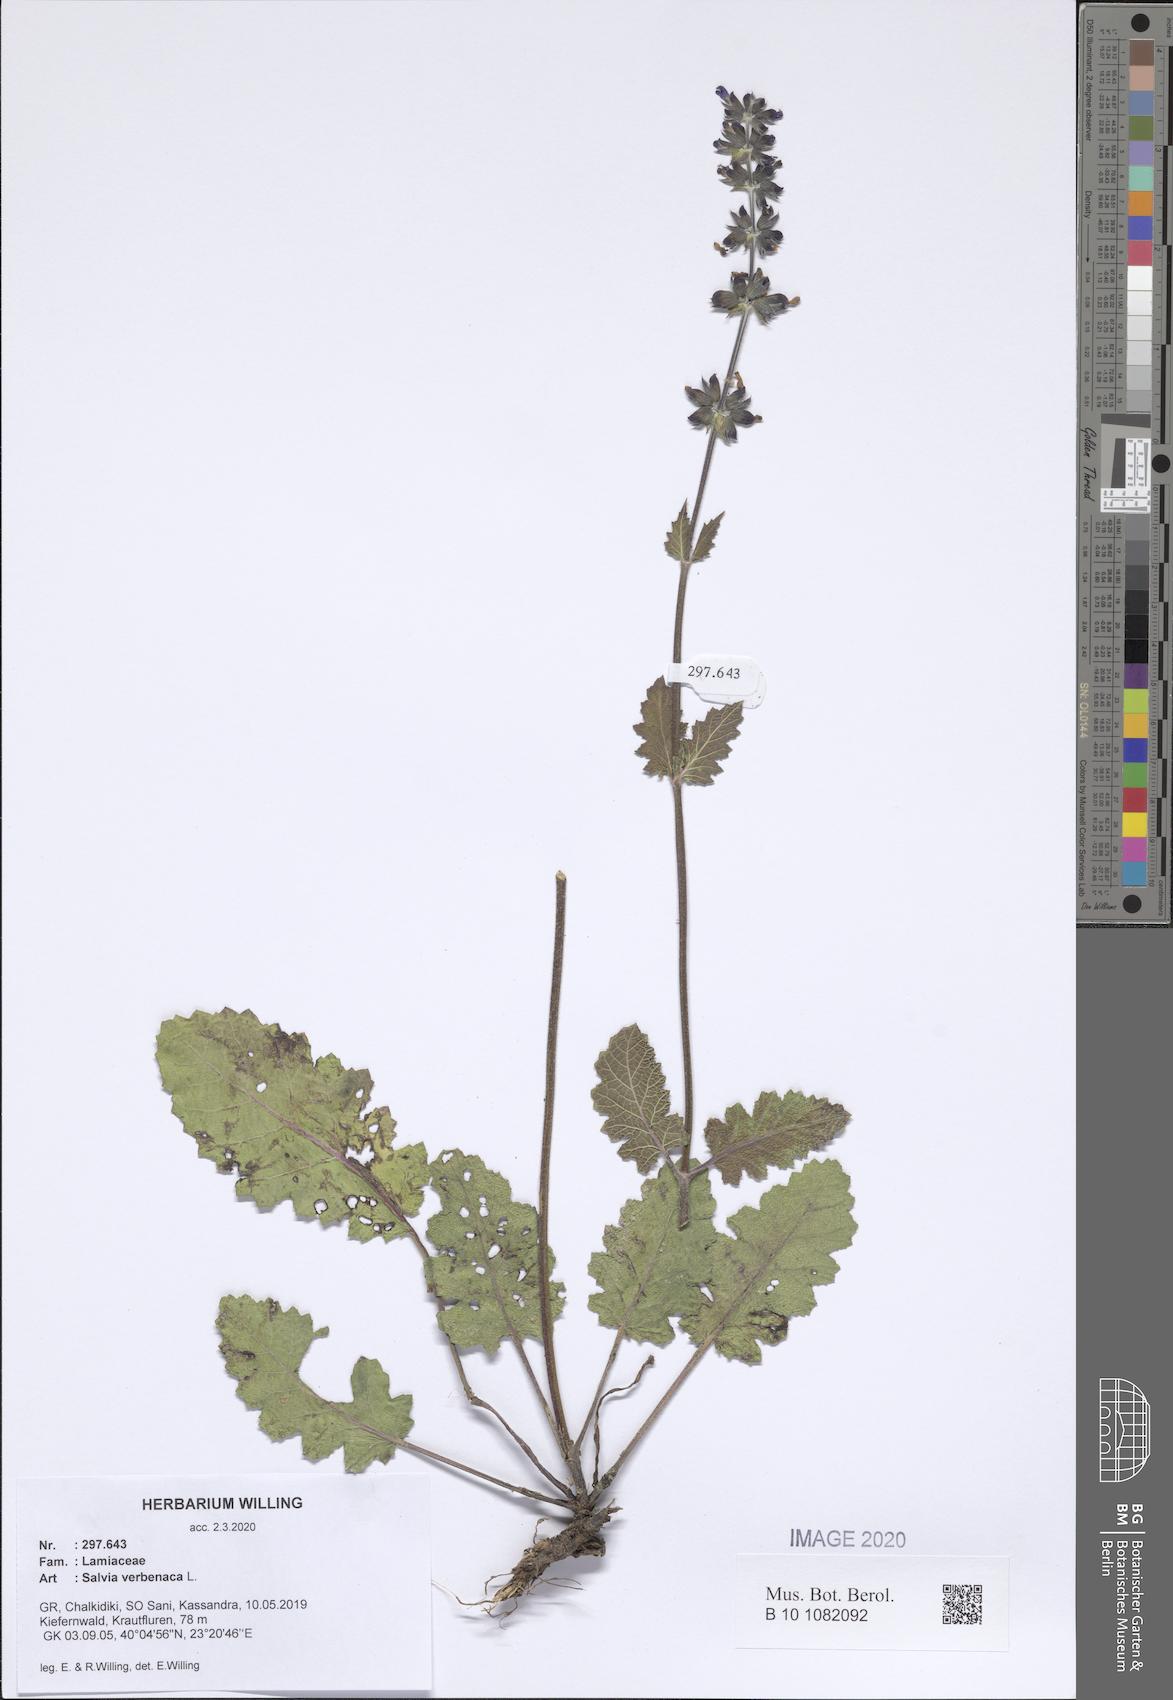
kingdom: Plantae
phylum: Tracheophyta
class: Magnoliopsida
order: Lamiales
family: Lamiaceae
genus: Salvia
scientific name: Salvia verbenaca
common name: Wild clary
